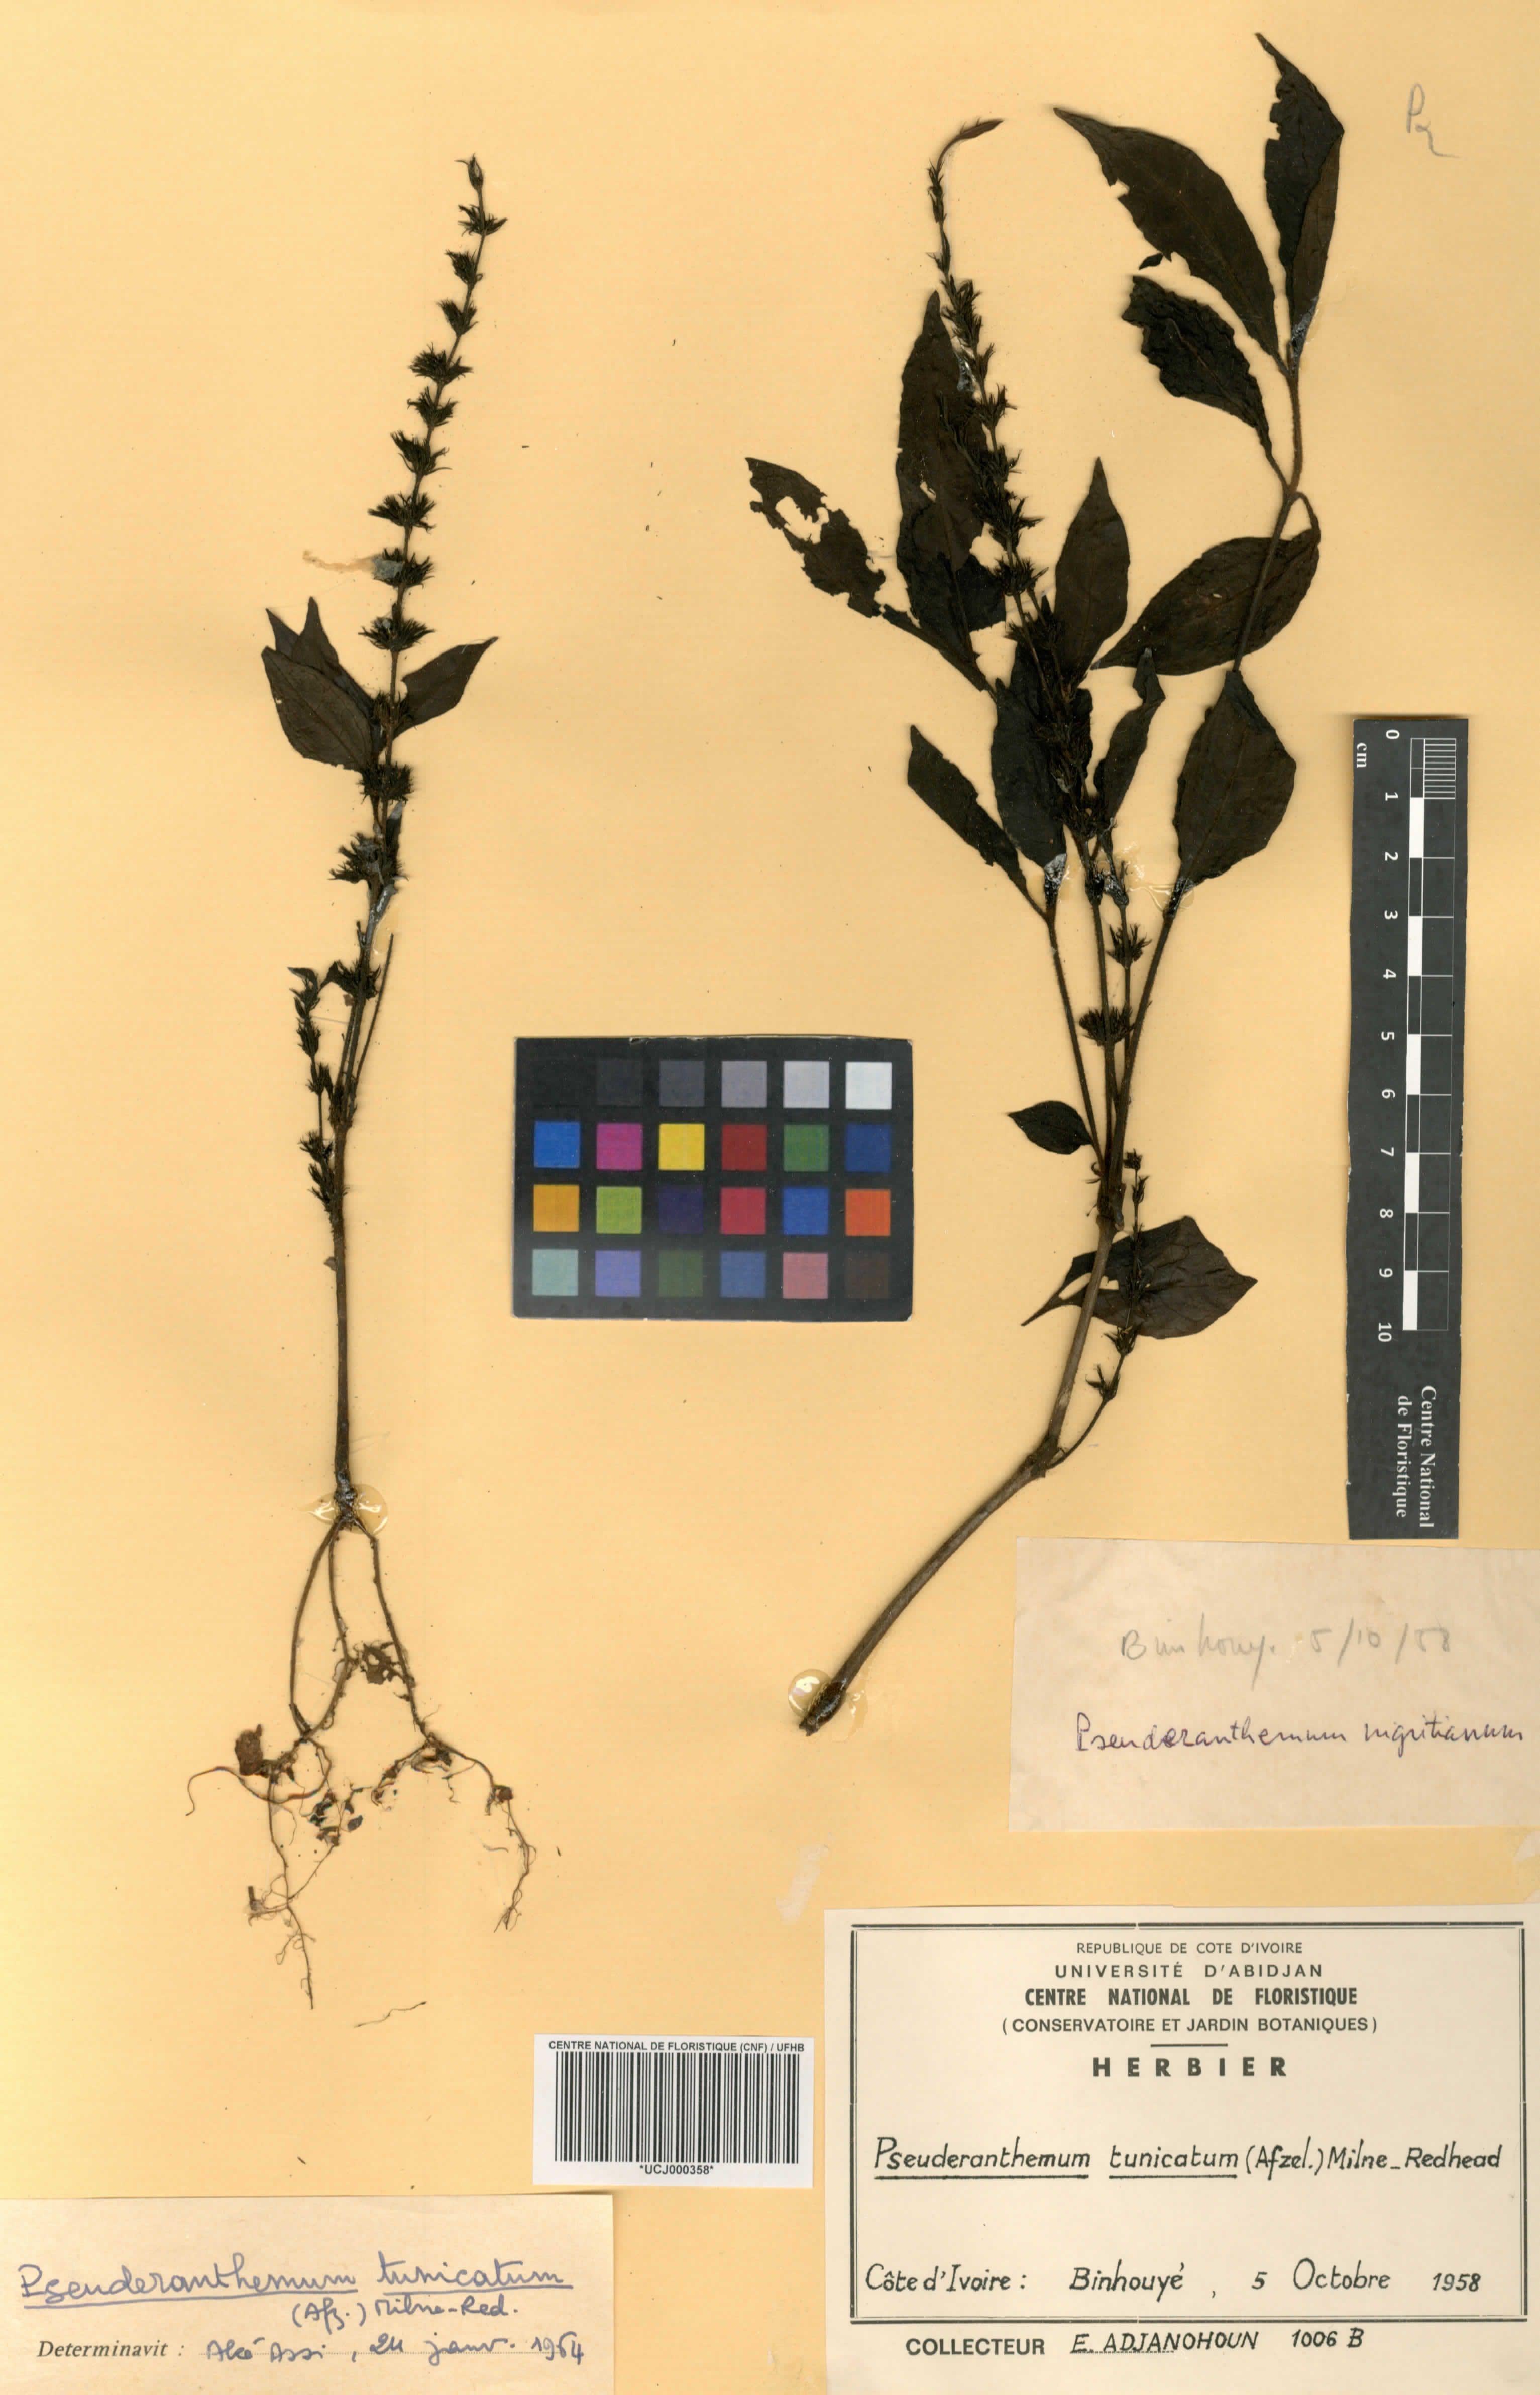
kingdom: Plantae
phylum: Tracheophyta
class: Magnoliopsida
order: Lamiales
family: Acanthaceae
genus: Pseuderanthemum
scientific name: Pseuderanthemum tunicatum
